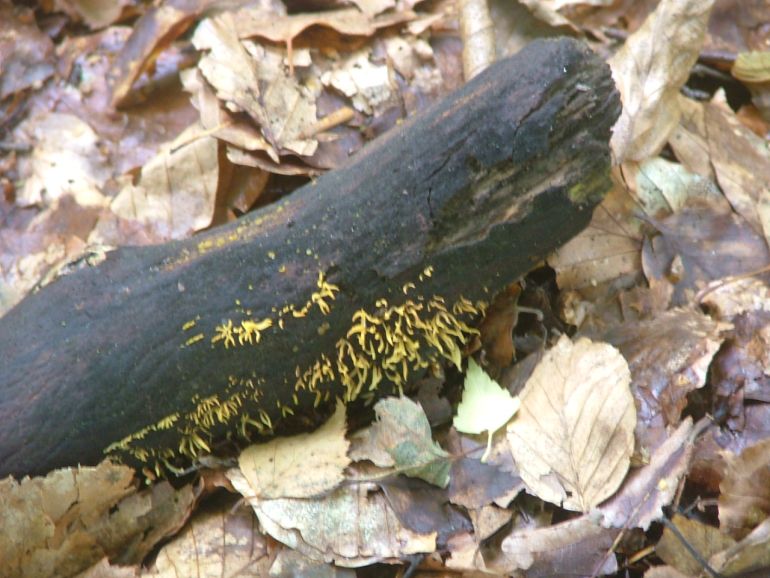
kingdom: Fungi
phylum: Basidiomycota
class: Dacrymycetes
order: Dacrymycetales
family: Dacrymycetaceae
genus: Calocera
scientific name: Calocera cornea
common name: liden guldgaffel
